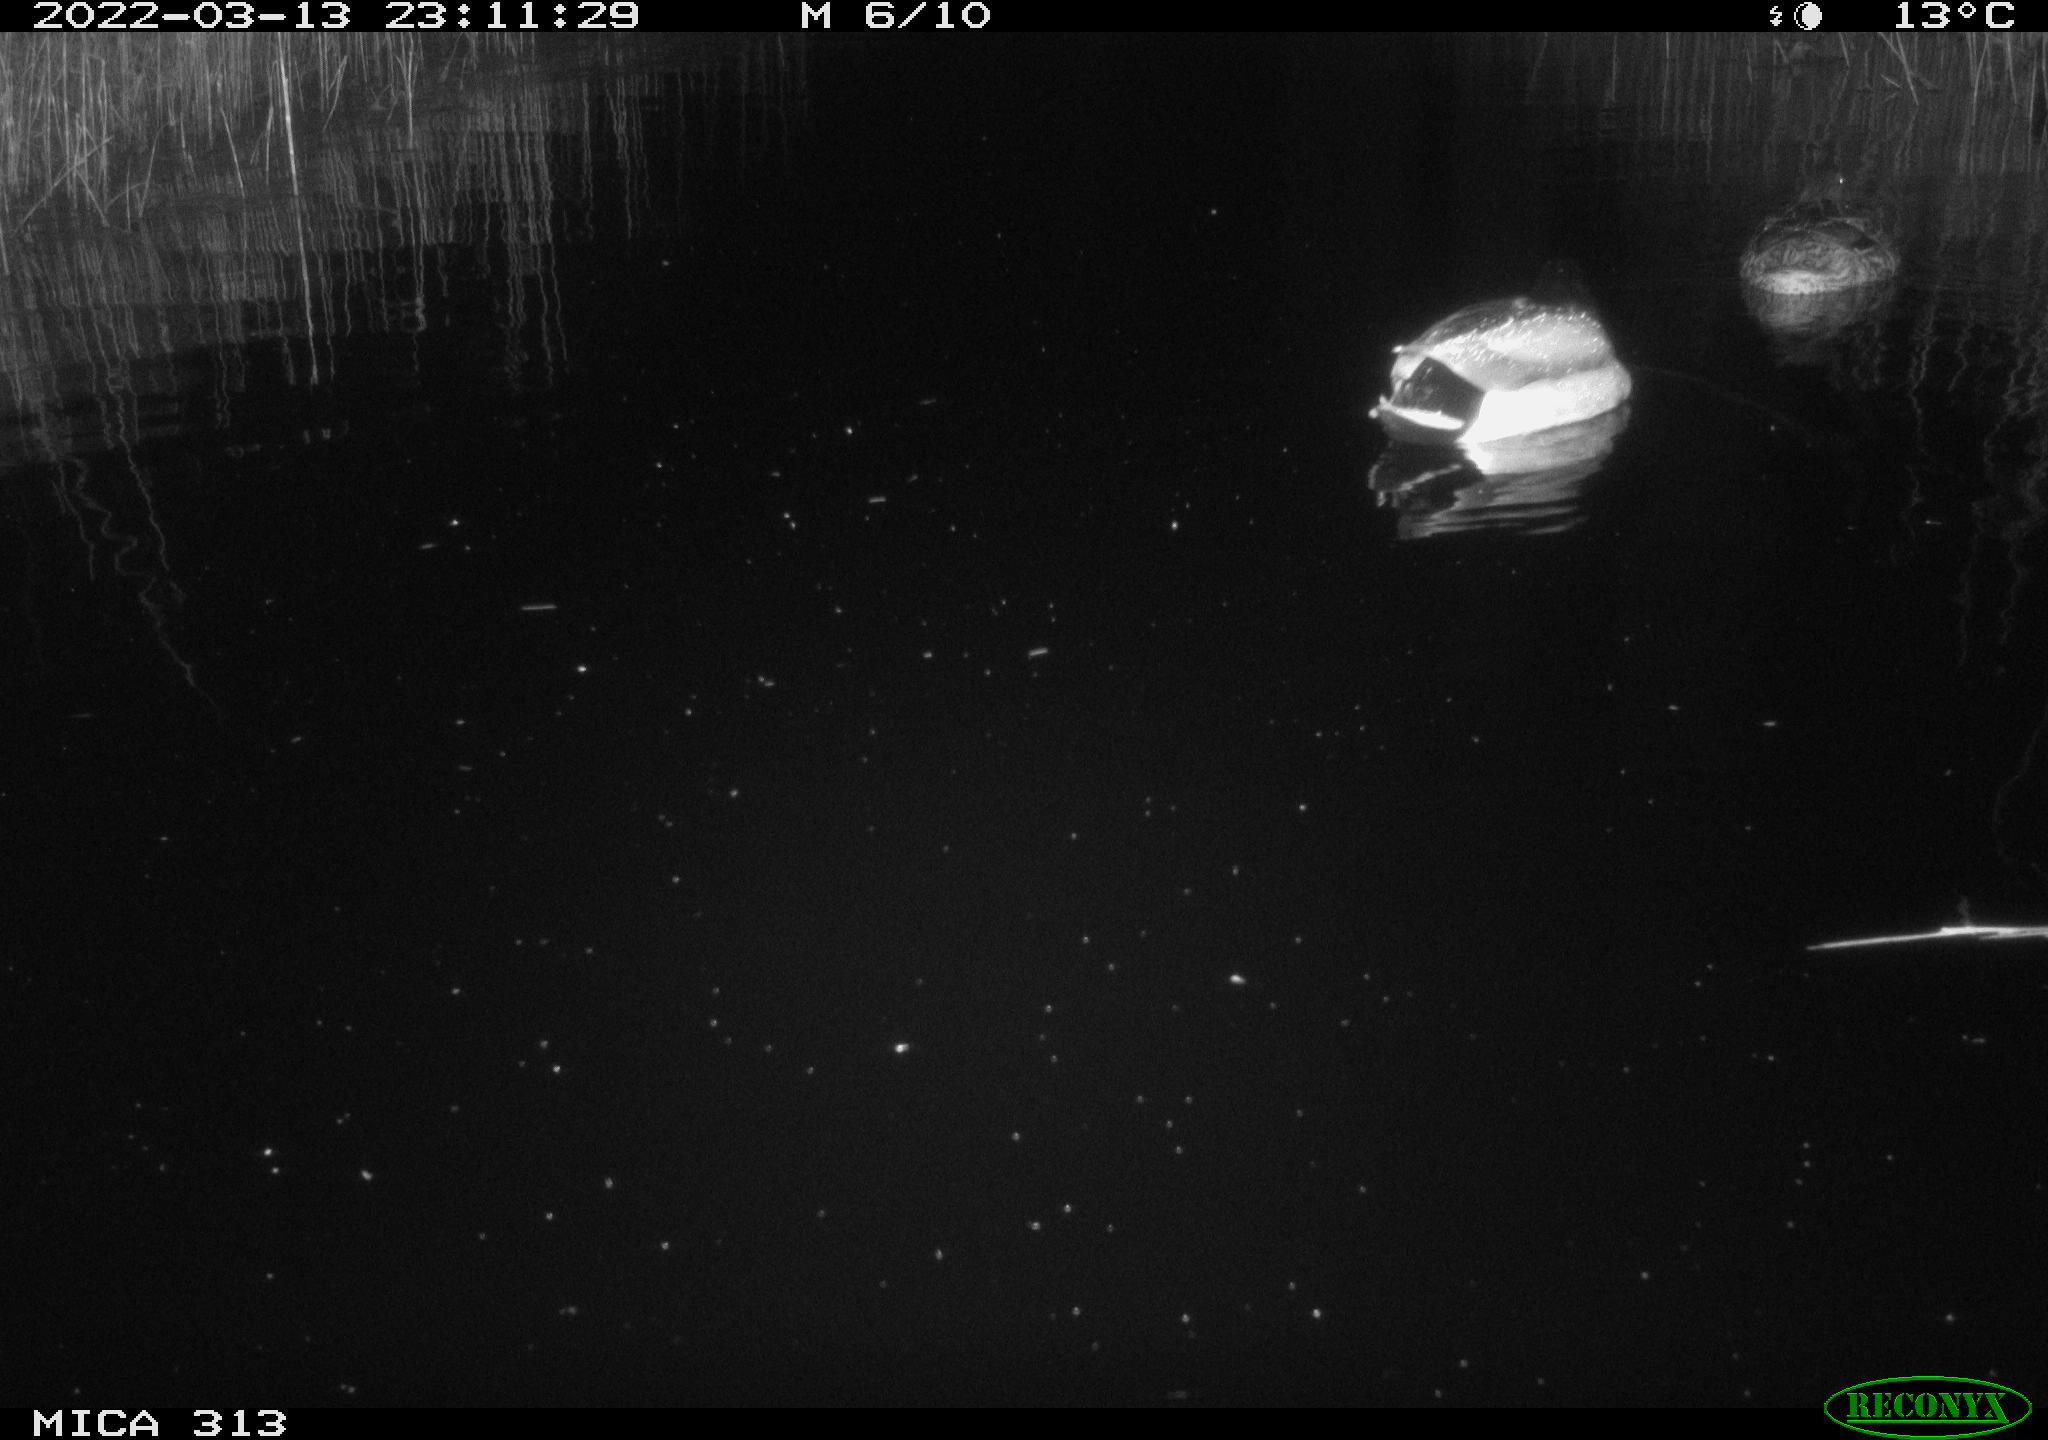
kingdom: Animalia
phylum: Chordata
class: Aves
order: Anseriformes
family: Anatidae
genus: Anas
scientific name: Anas platyrhynchos
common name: Mallard
